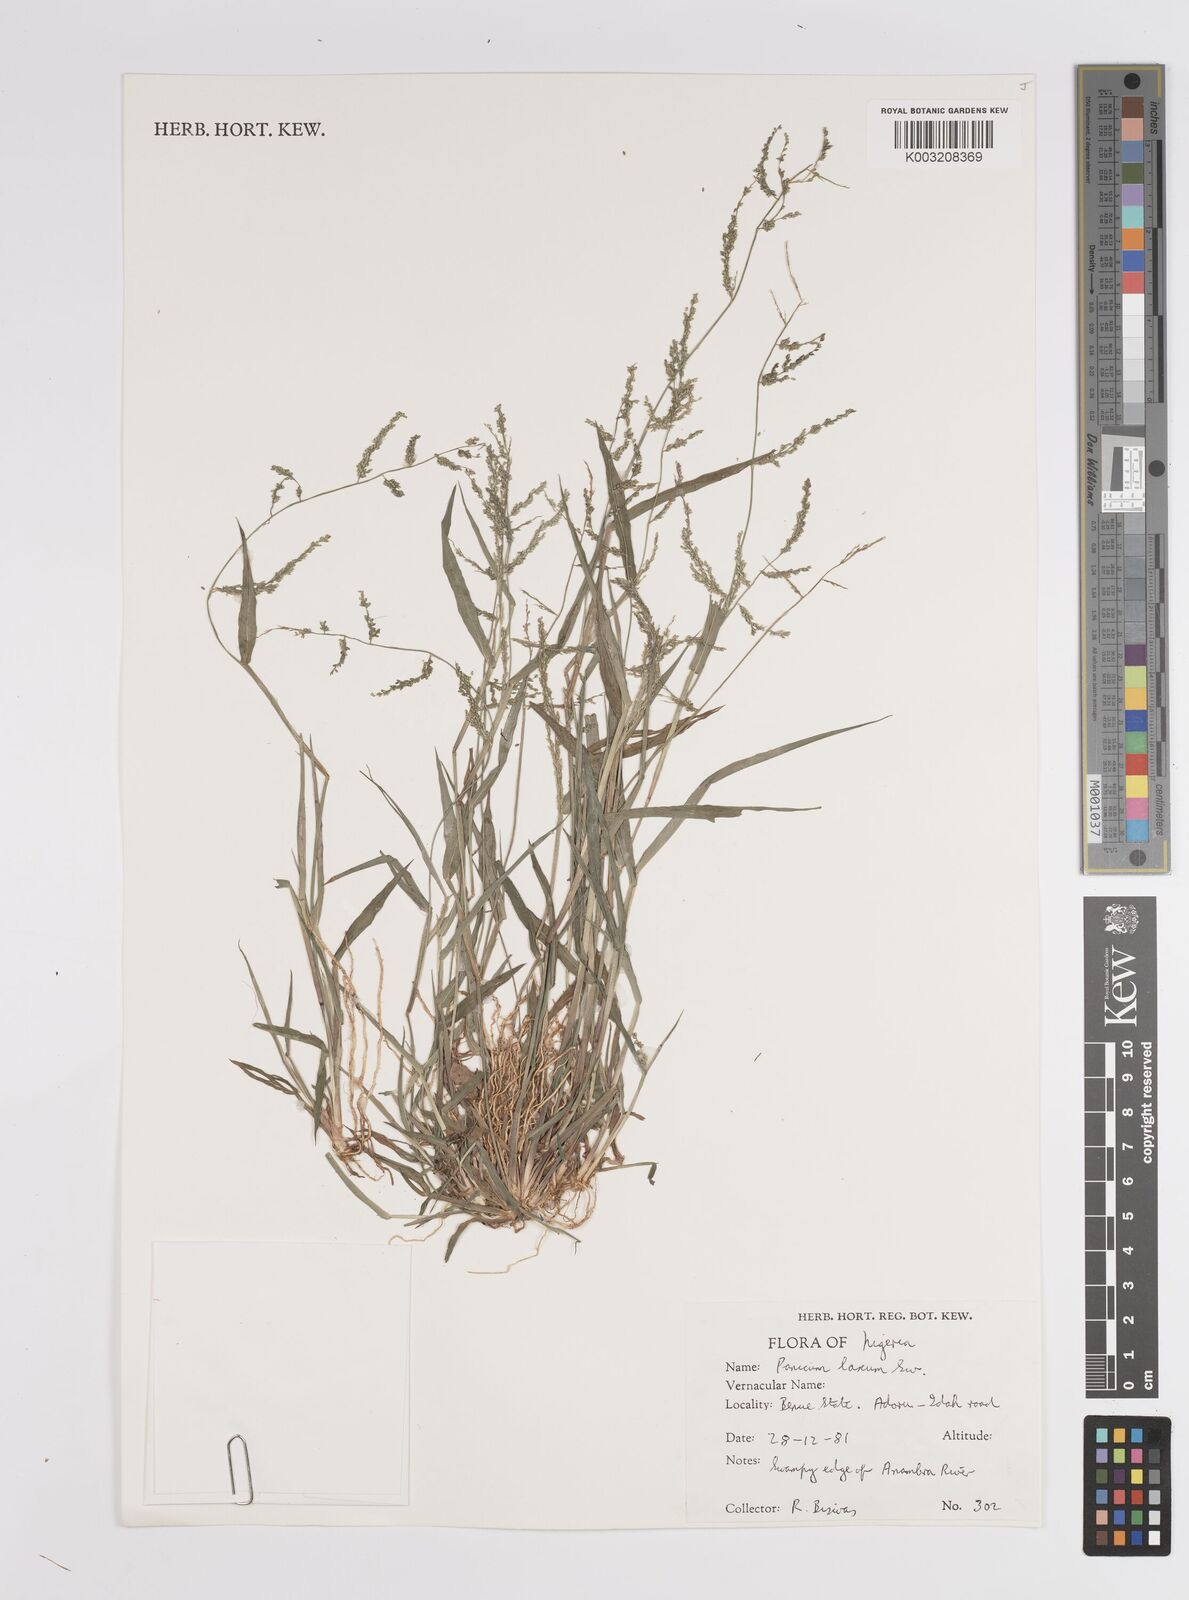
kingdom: Plantae
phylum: Tracheophyta
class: Liliopsida
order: Poales
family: Poaceae
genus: Steinchisma
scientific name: Steinchisma laxum
